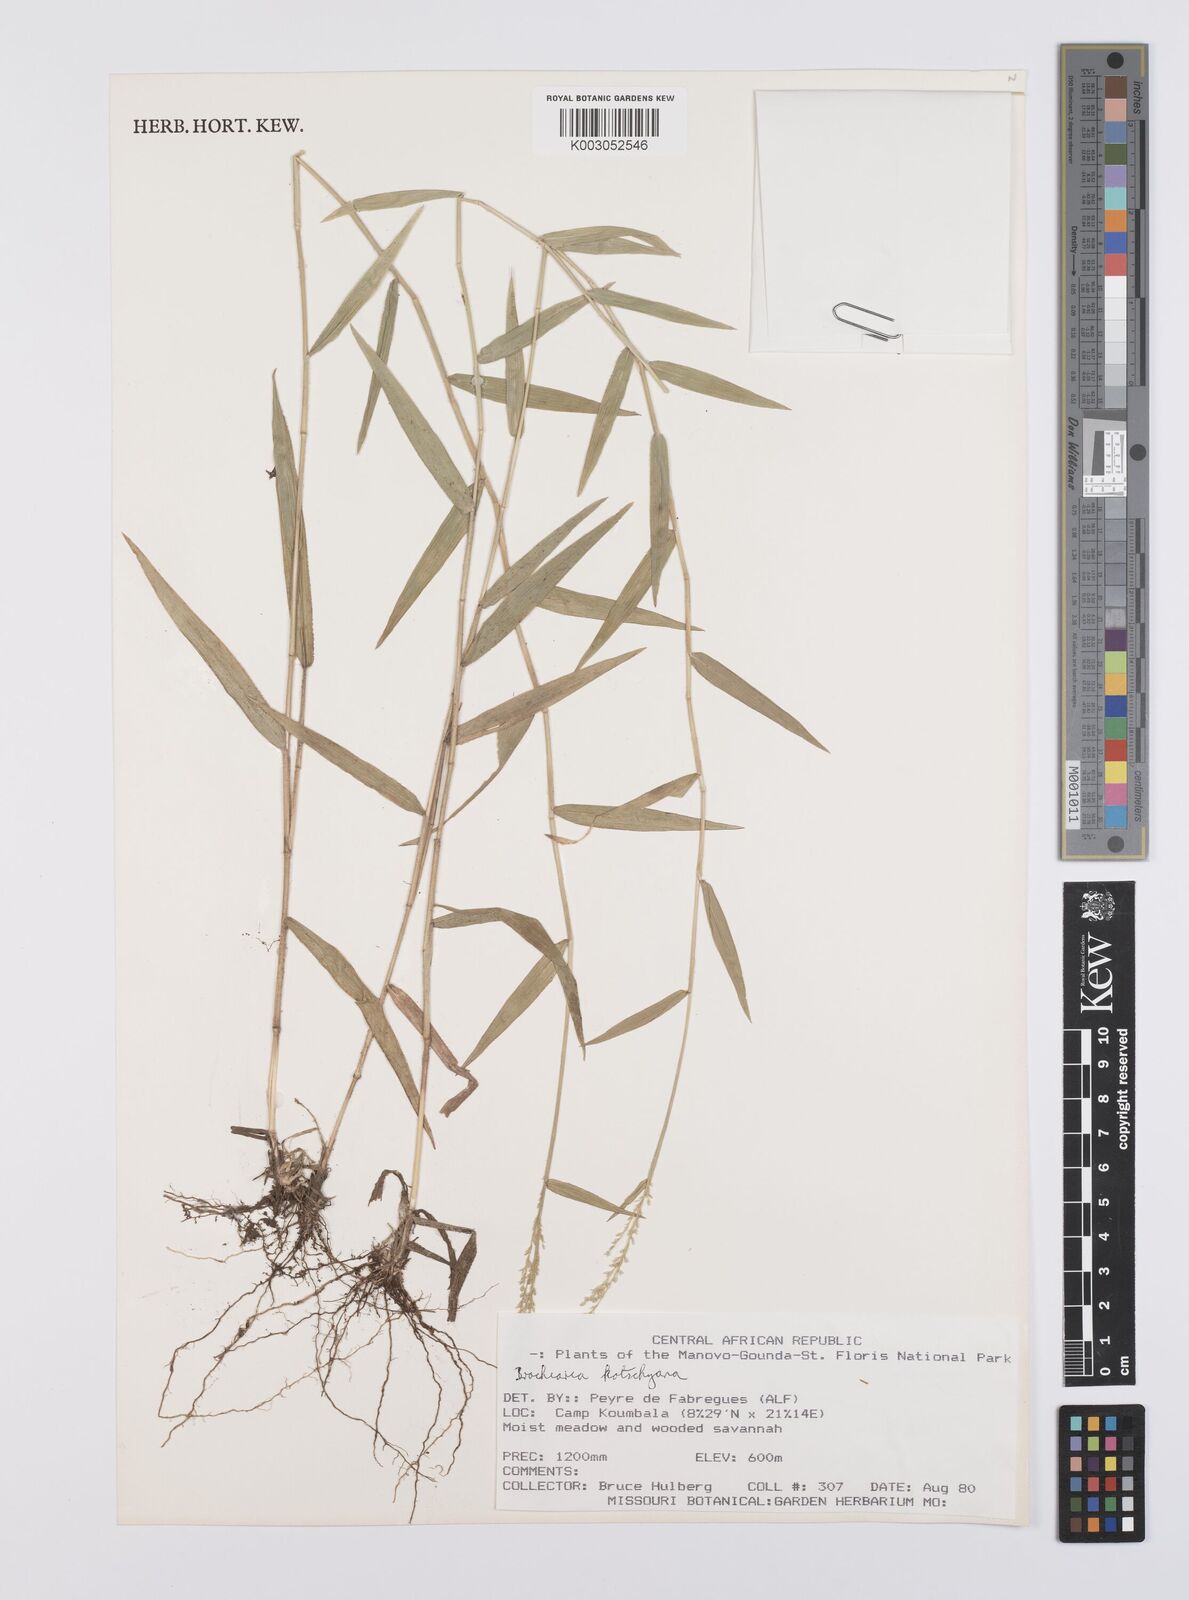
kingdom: Plantae
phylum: Tracheophyta
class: Liliopsida
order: Poales
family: Poaceae
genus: Urochloa
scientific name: Urochloa comata
